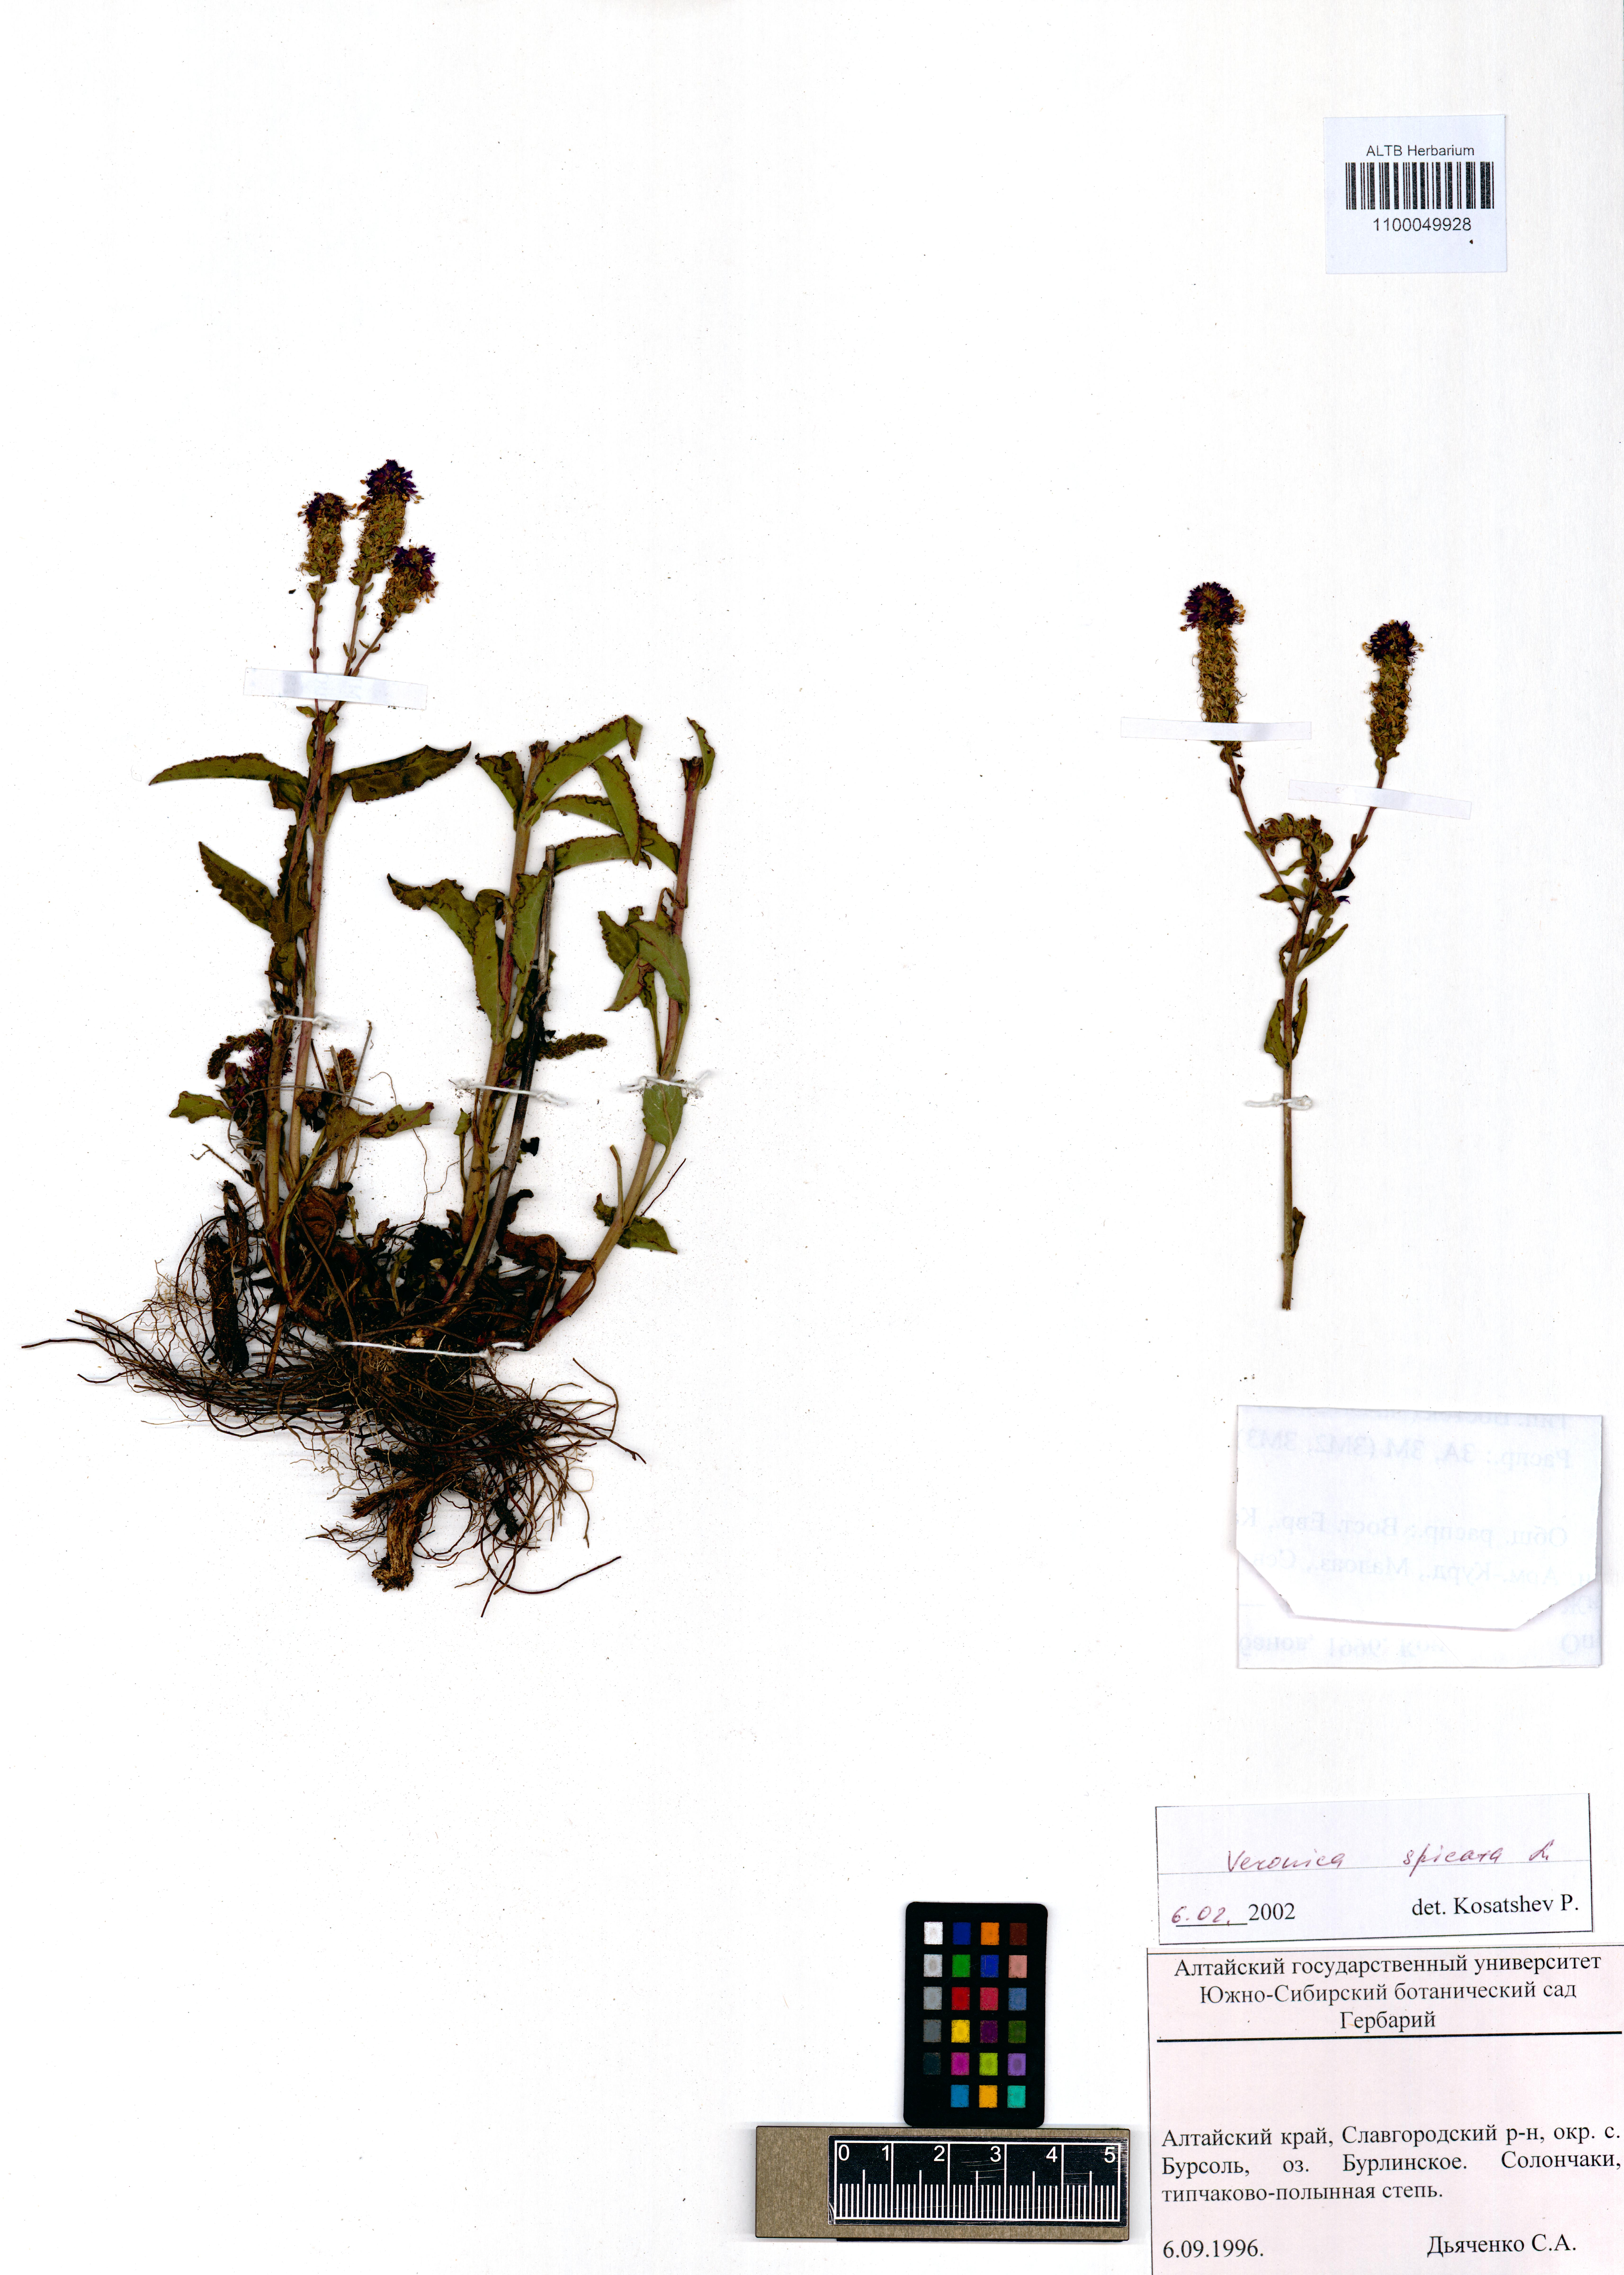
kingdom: Plantae
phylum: Tracheophyta
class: Magnoliopsida
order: Lamiales
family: Plantaginaceae
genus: Veronica
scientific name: Veronica pinnata
